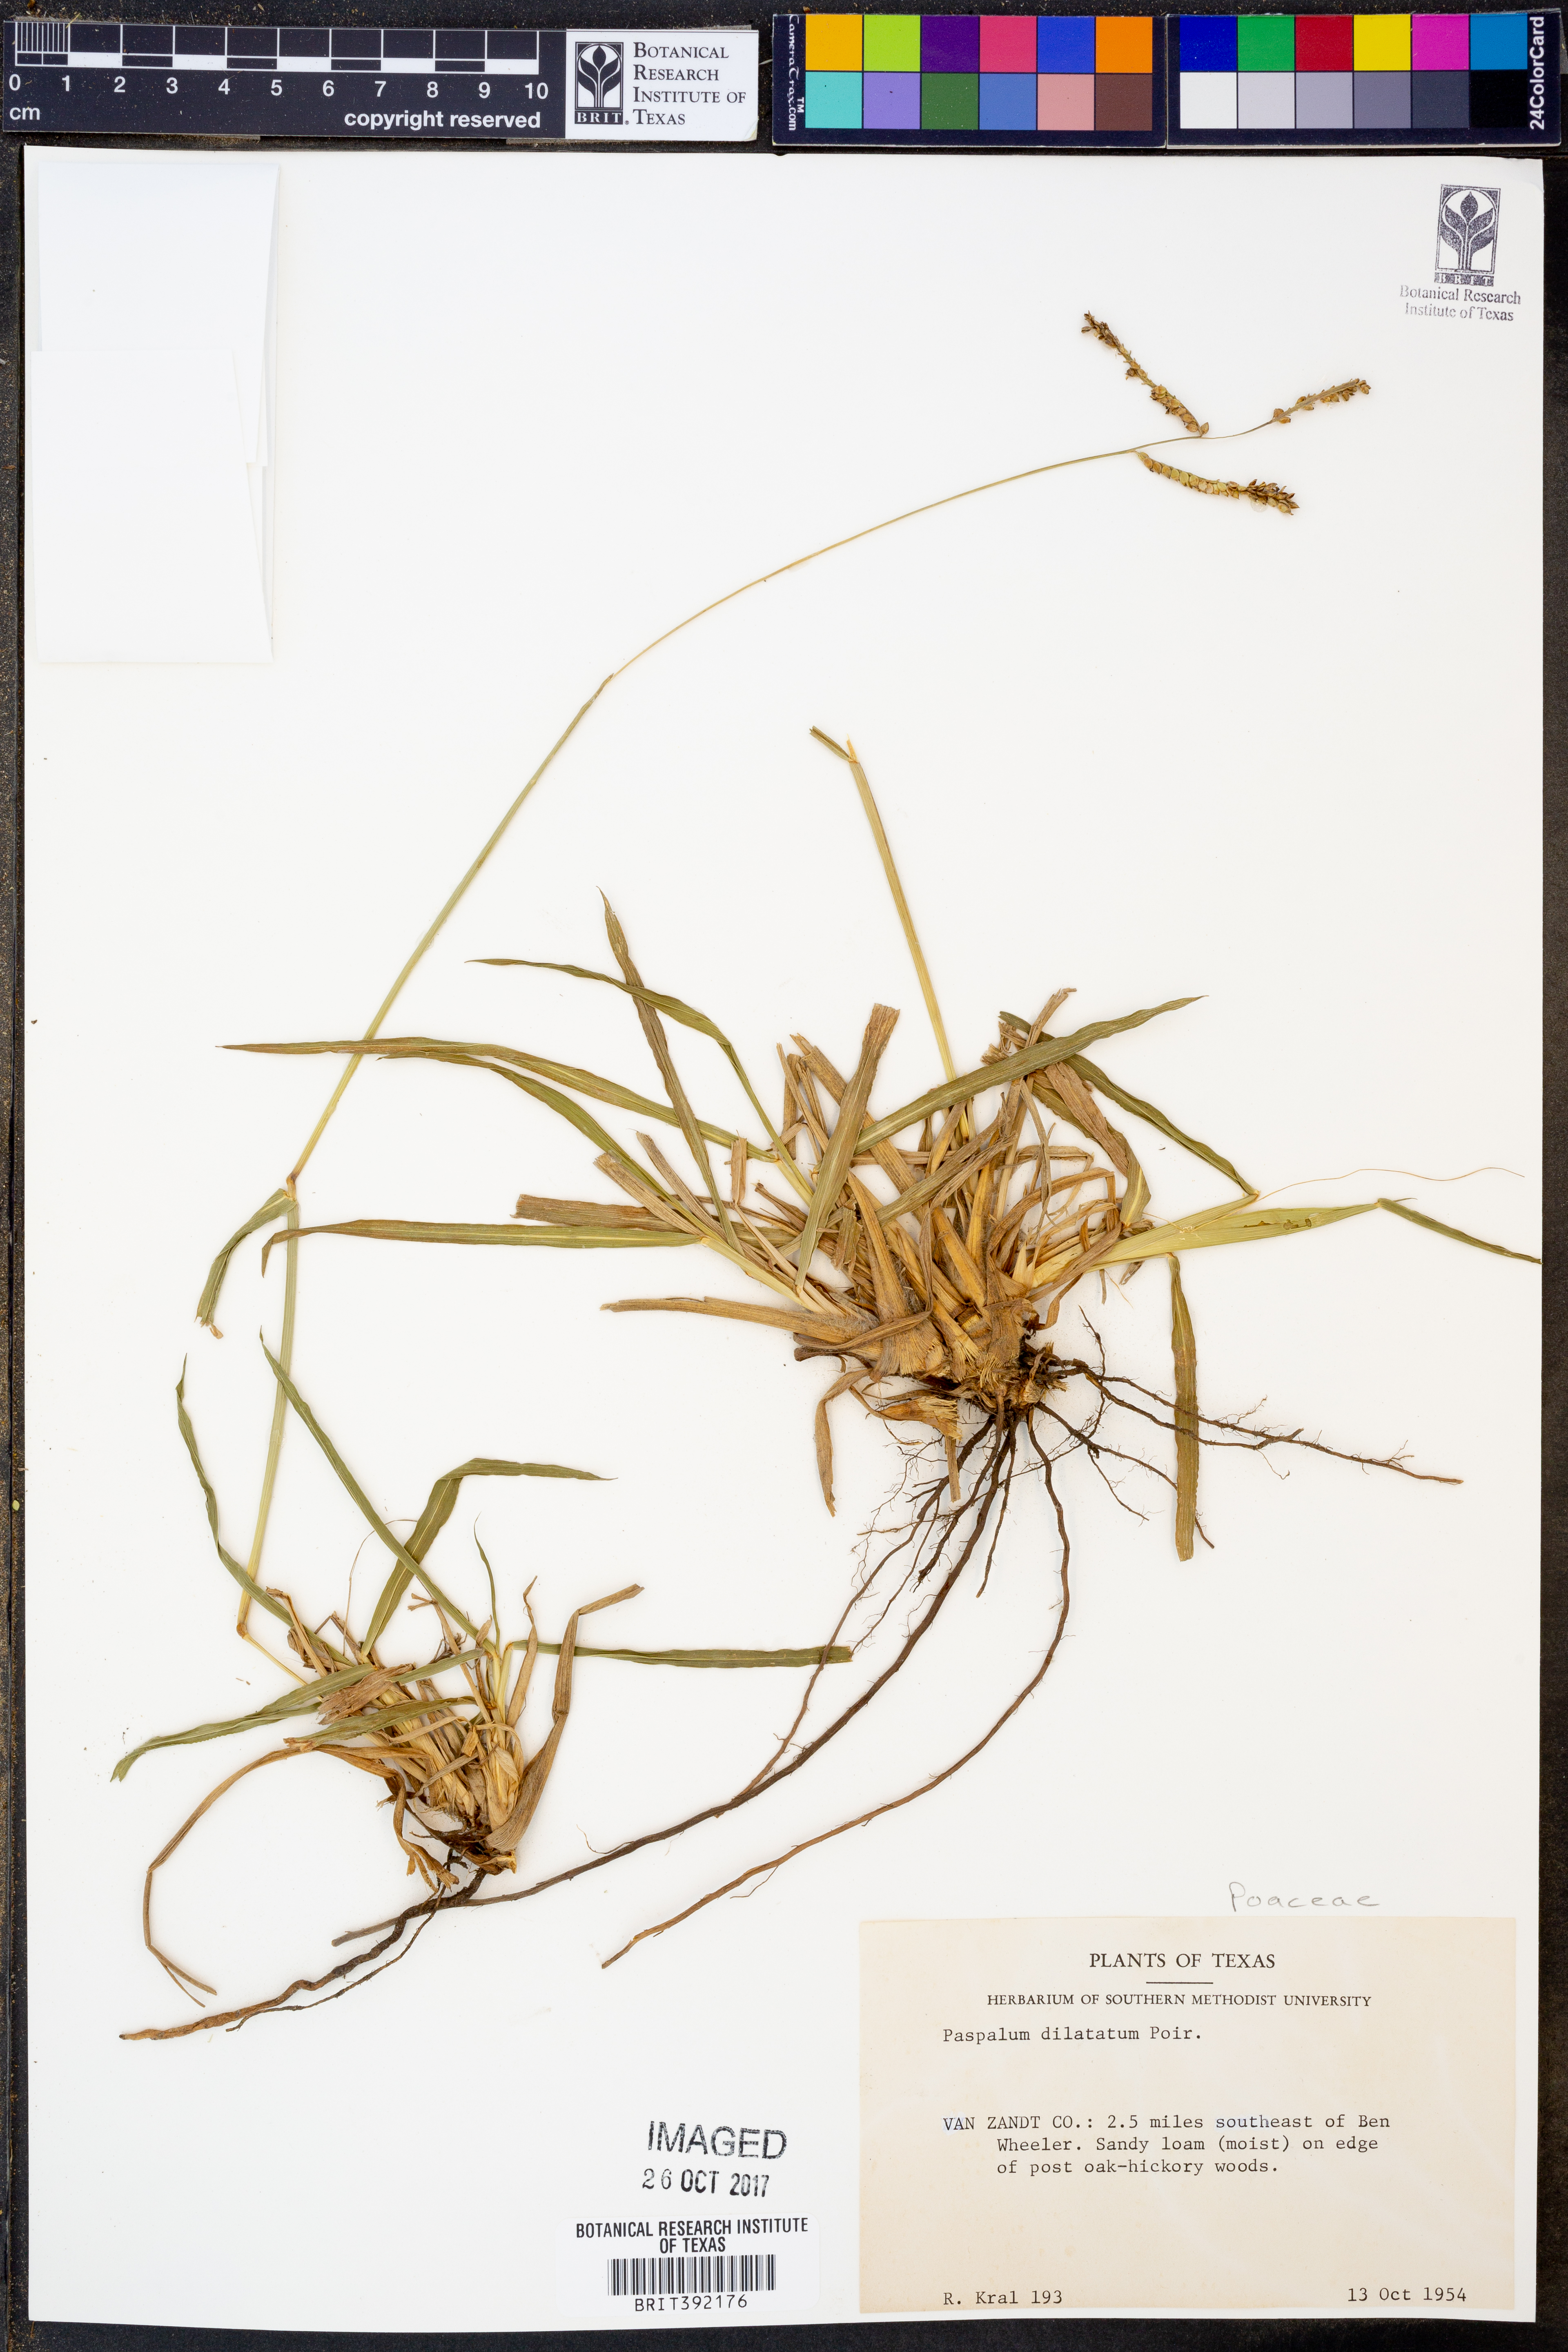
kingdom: Plantae
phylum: Tracheophyta
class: Liliopsida
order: Poales
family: Poaceae
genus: Paspalum
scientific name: Paspalum dilatatum
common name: Dallisgrass
